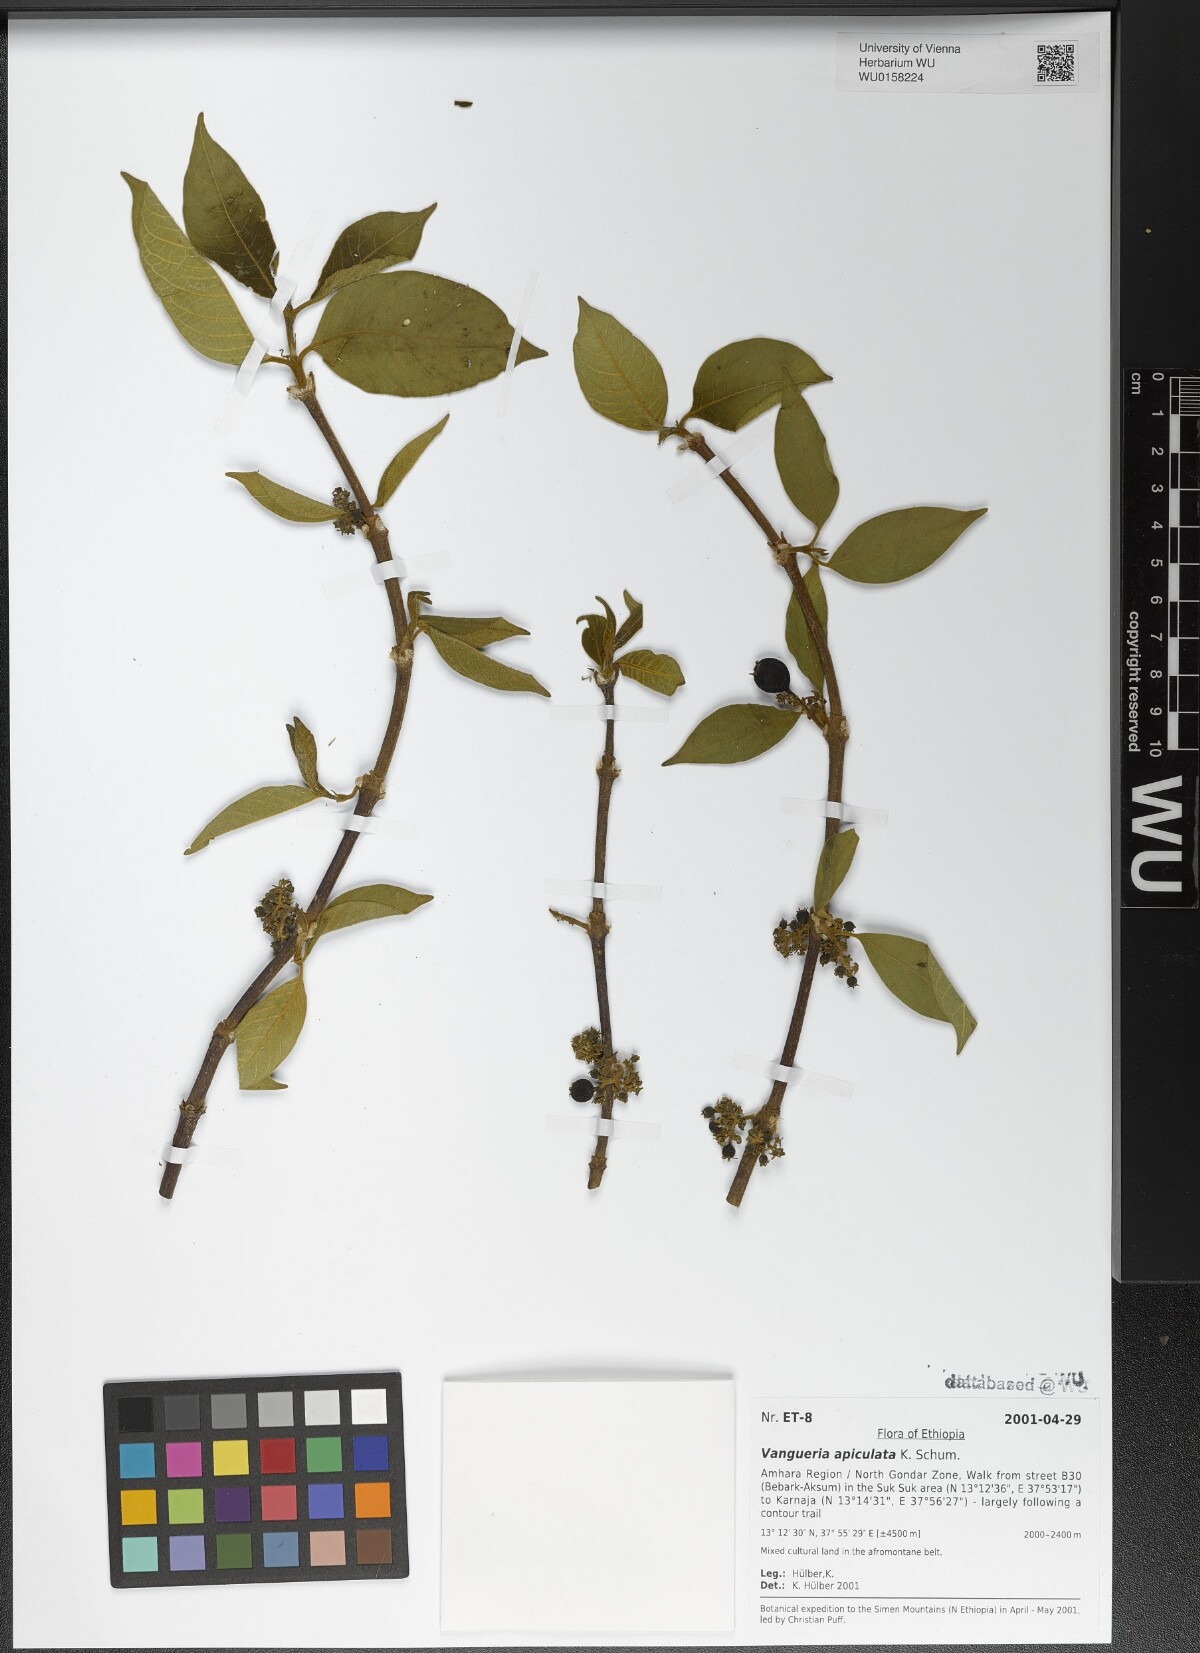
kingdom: Plantae
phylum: Tracheophyta
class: Magnoliopsida
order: Gentianales
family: Rubiaceae
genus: Vangueria
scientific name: Vangueria apiculata
